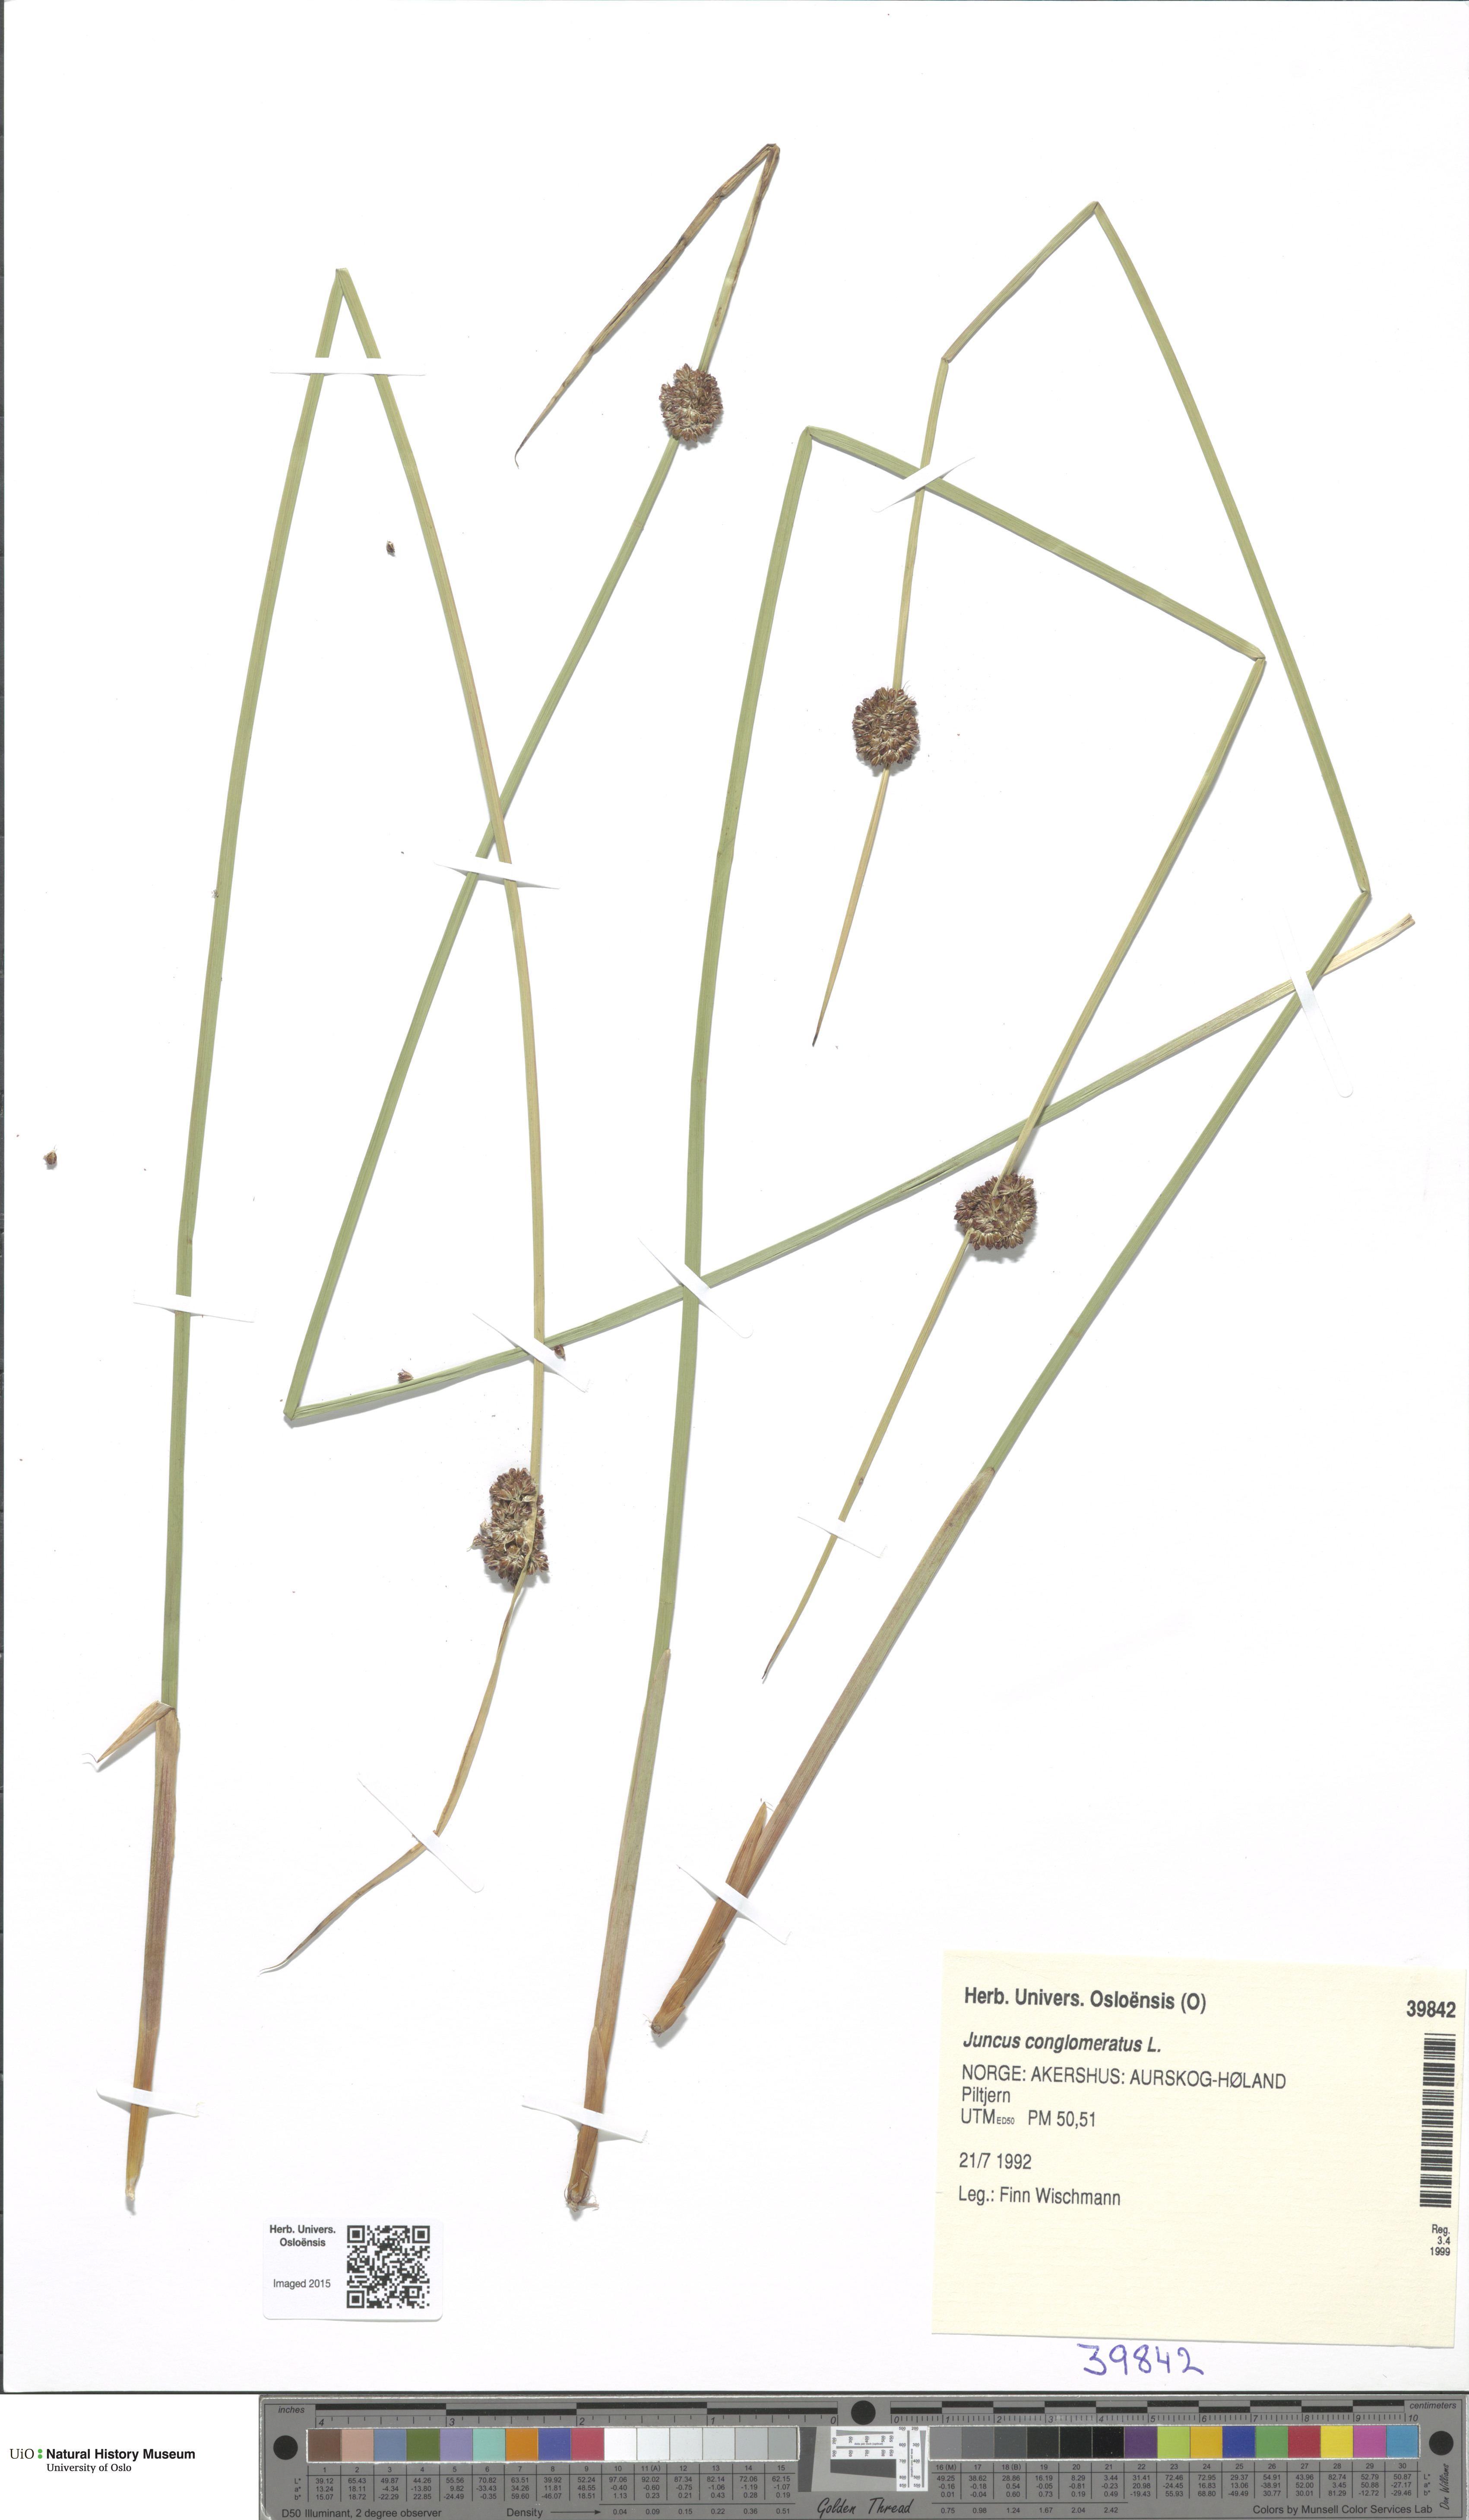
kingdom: Plantae
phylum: Tracheophyta
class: Liliopsida
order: Poales
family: Juncaceae
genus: Juncus
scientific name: Juncus conglomeratus
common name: Compact rush
